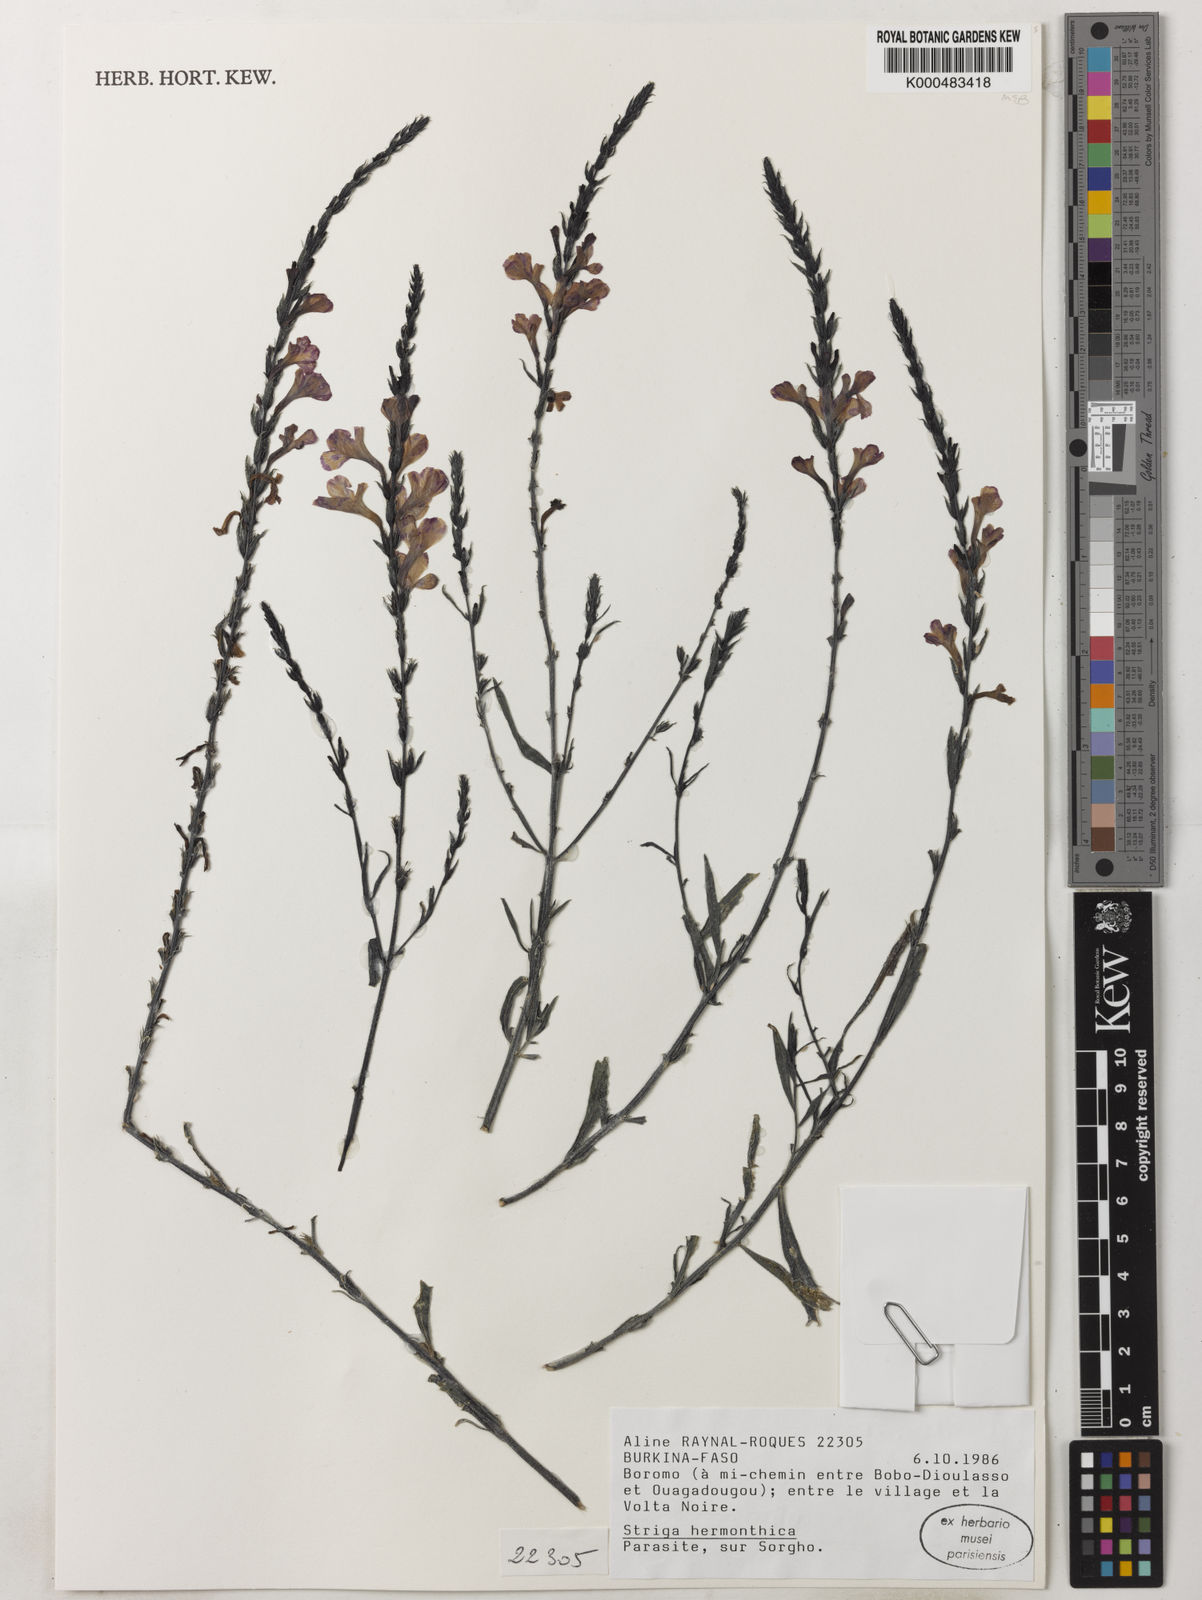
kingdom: Plantae
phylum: Tracheophyta
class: Magnoliopsida
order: Lamiales
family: Orobanchaceae
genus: Striga
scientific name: Striga hermonthica
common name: Purple witchweed
